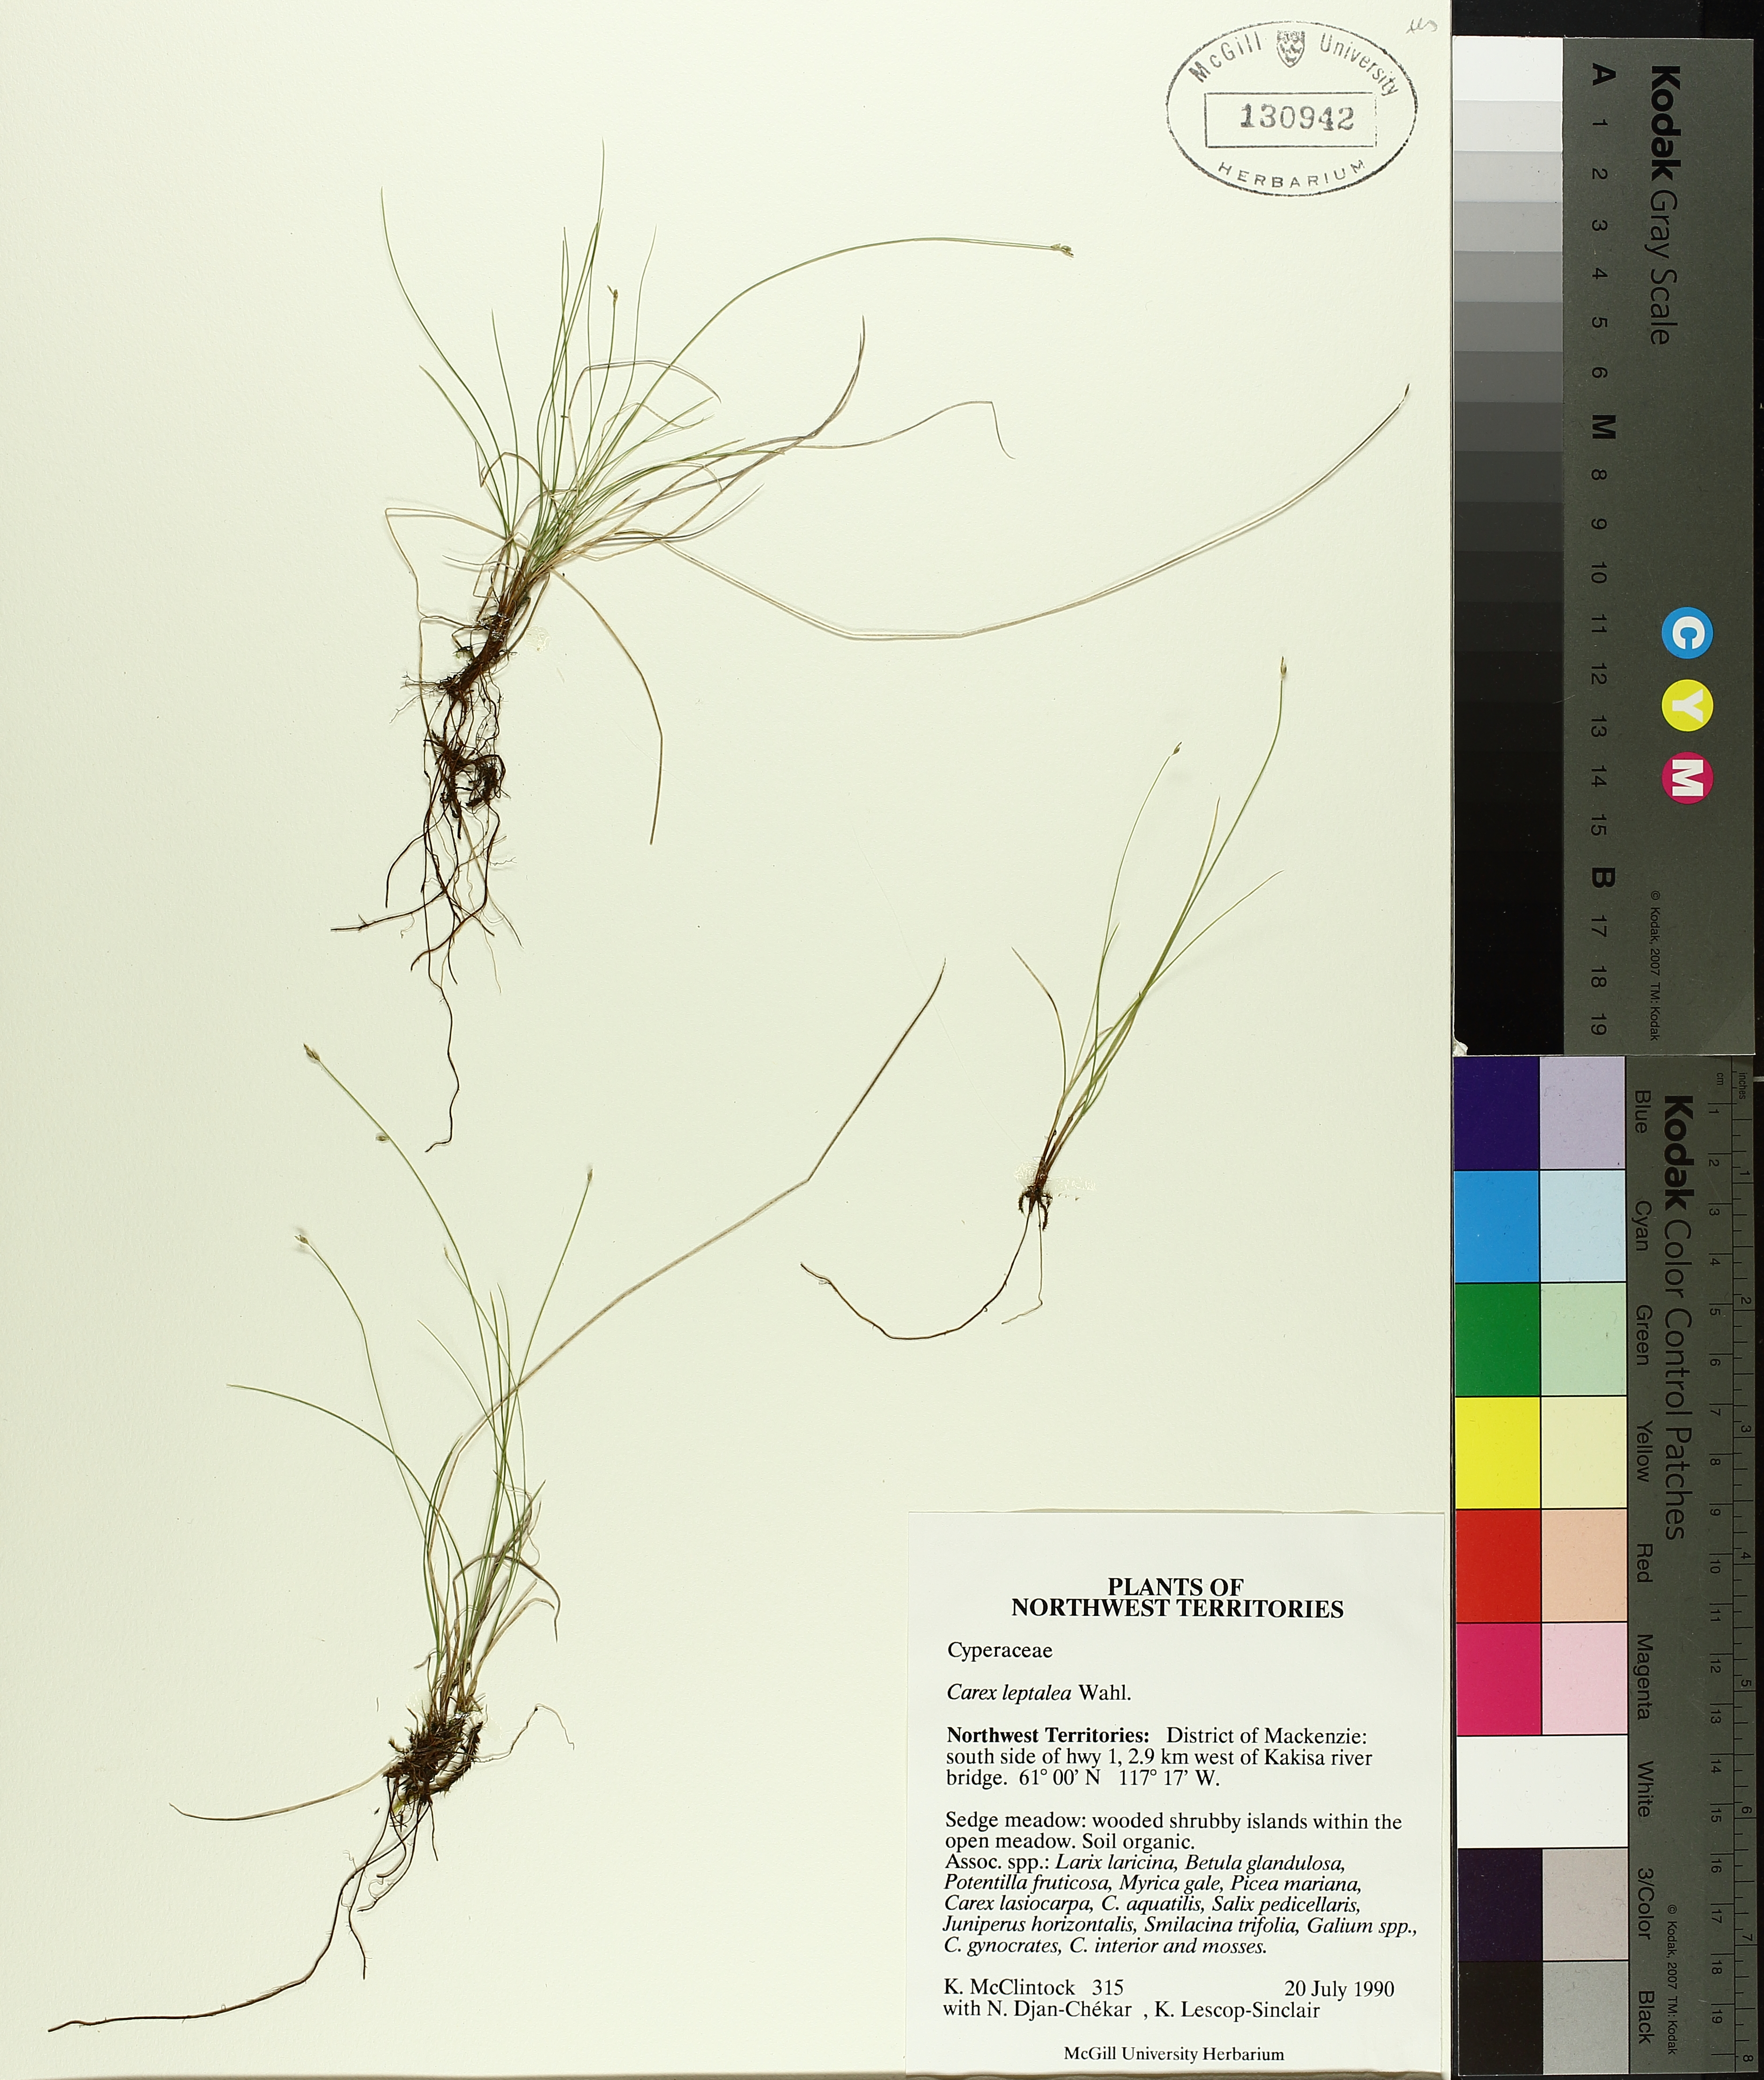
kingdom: Plantae
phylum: Tracheophyta
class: Liliopsida
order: Poales
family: Cyperaceae
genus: Carex
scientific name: Carex leptalea
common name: Bristly-stalked sedge
